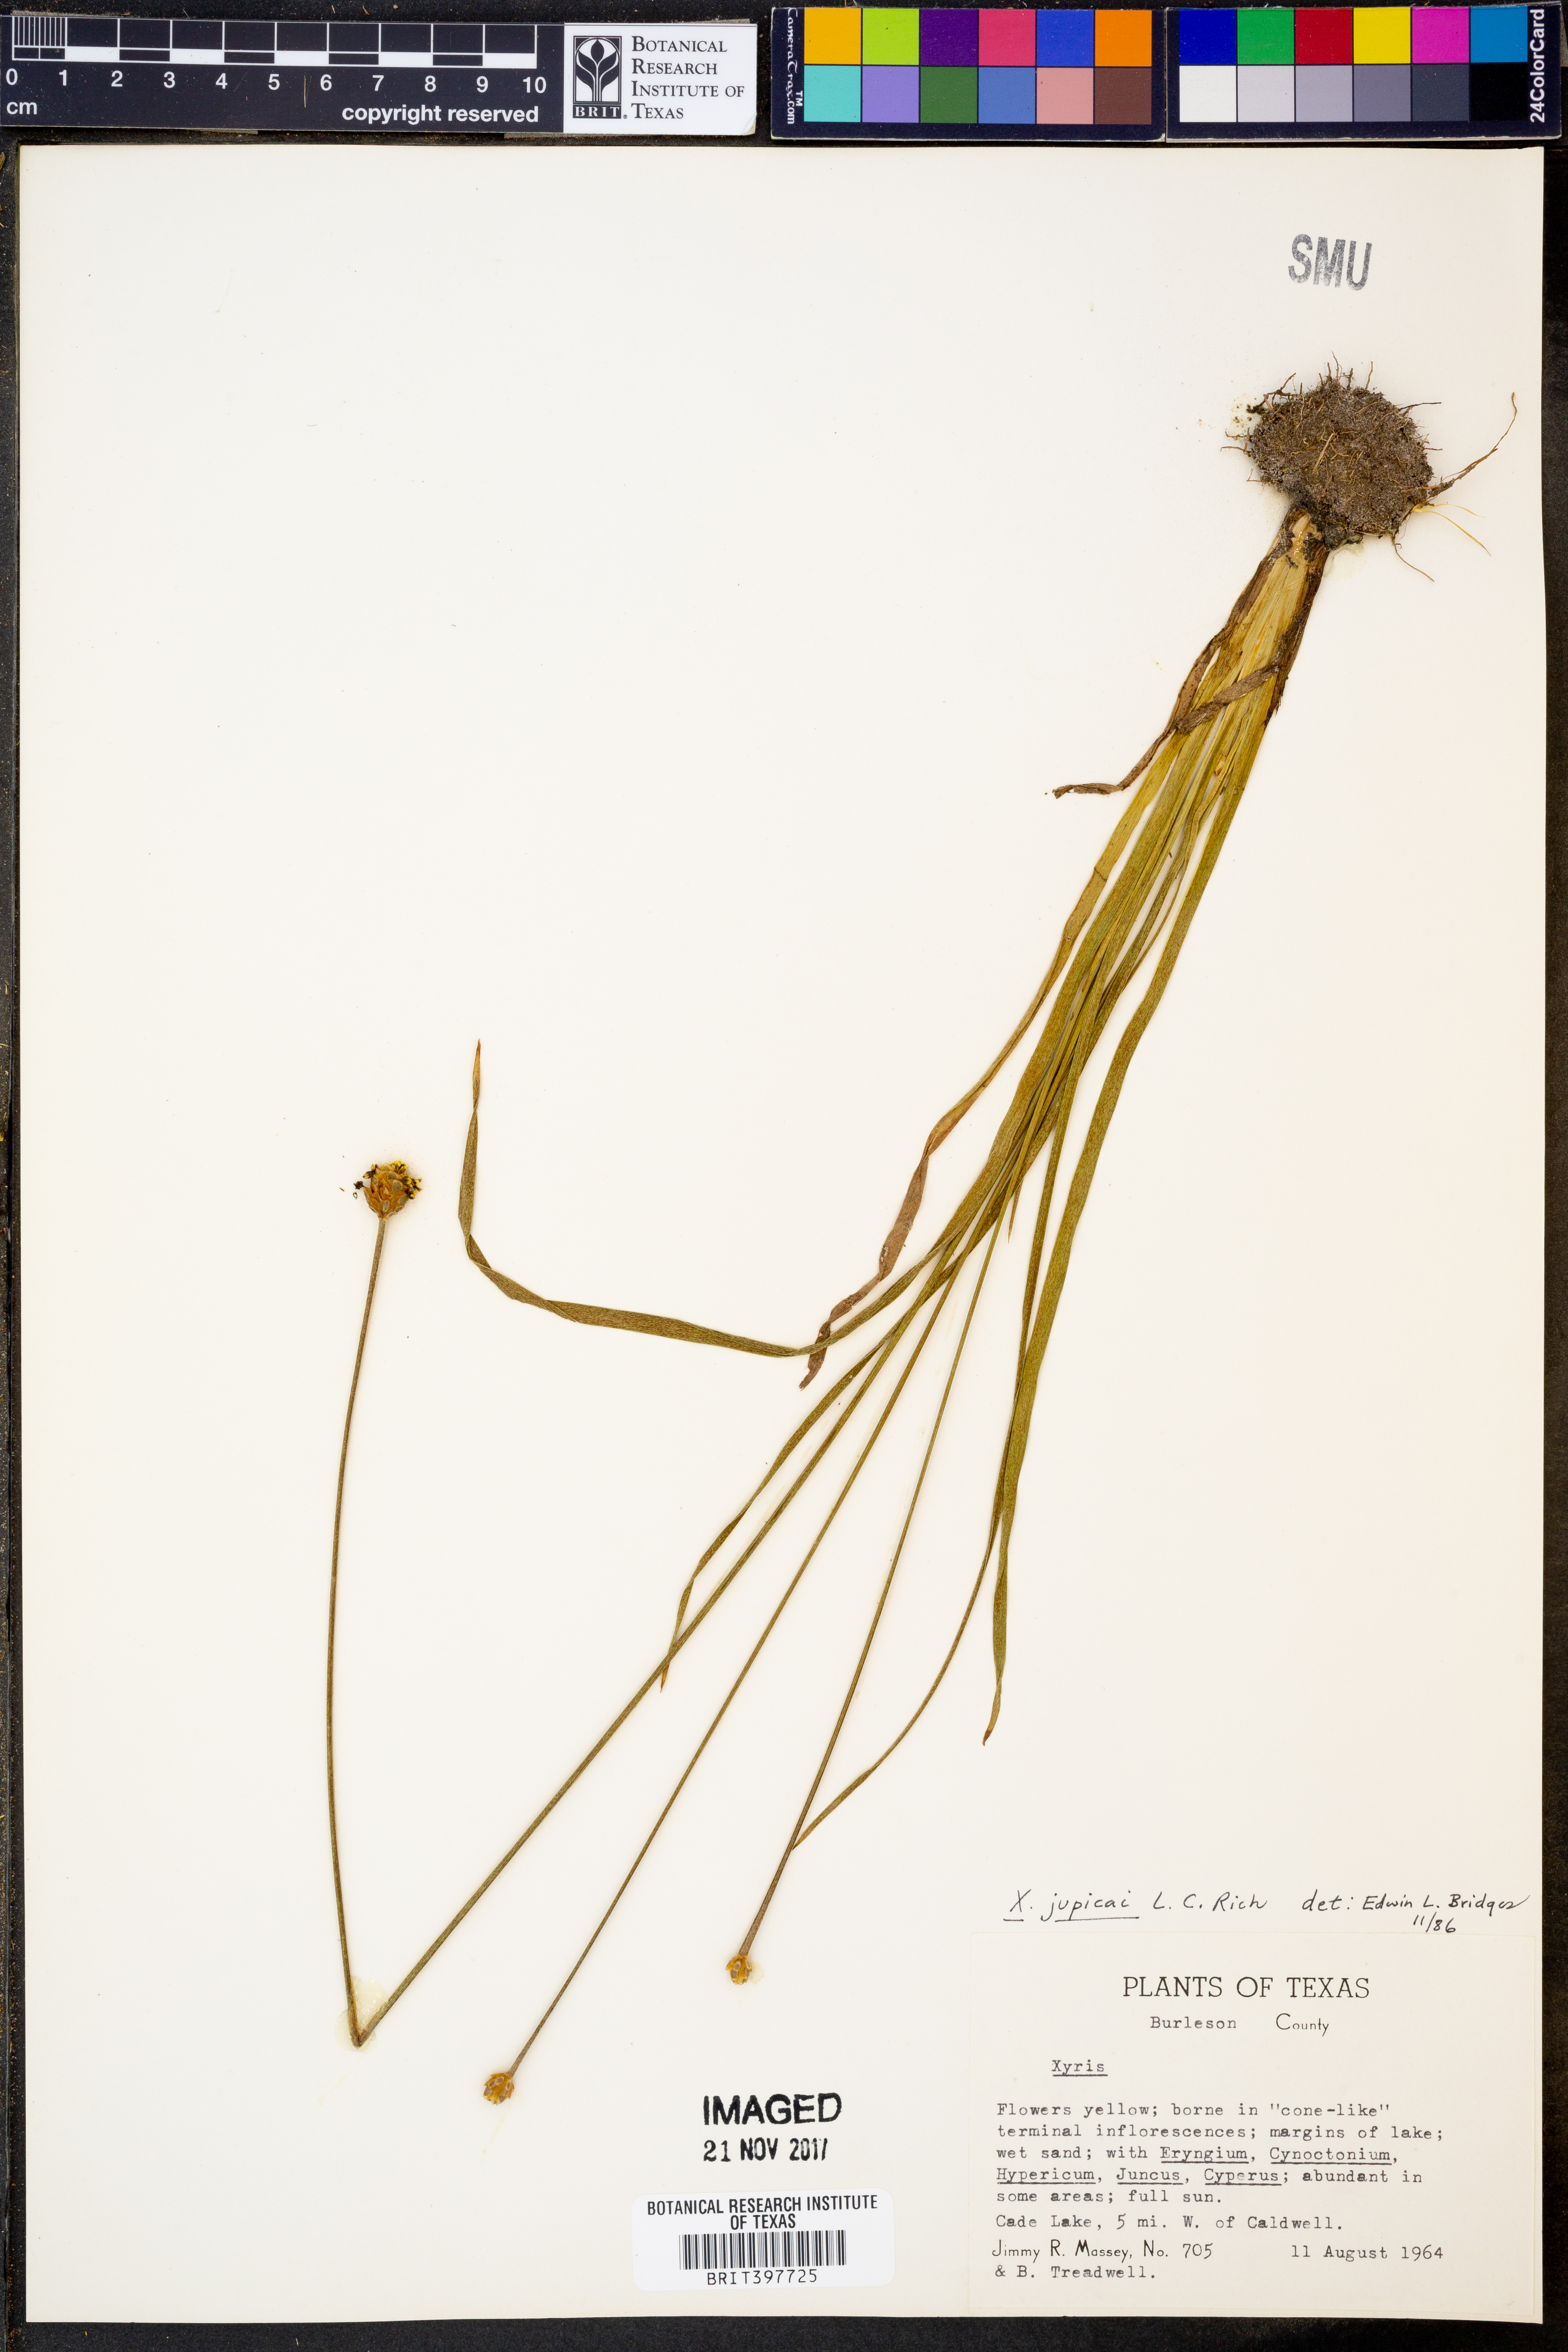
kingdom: Plantae
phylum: Tracheophyta
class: Liliopsida
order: Poales
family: Xyridaceae
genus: Xyris
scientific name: Xyris jupicai
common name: Richard's yelloweyed grass
